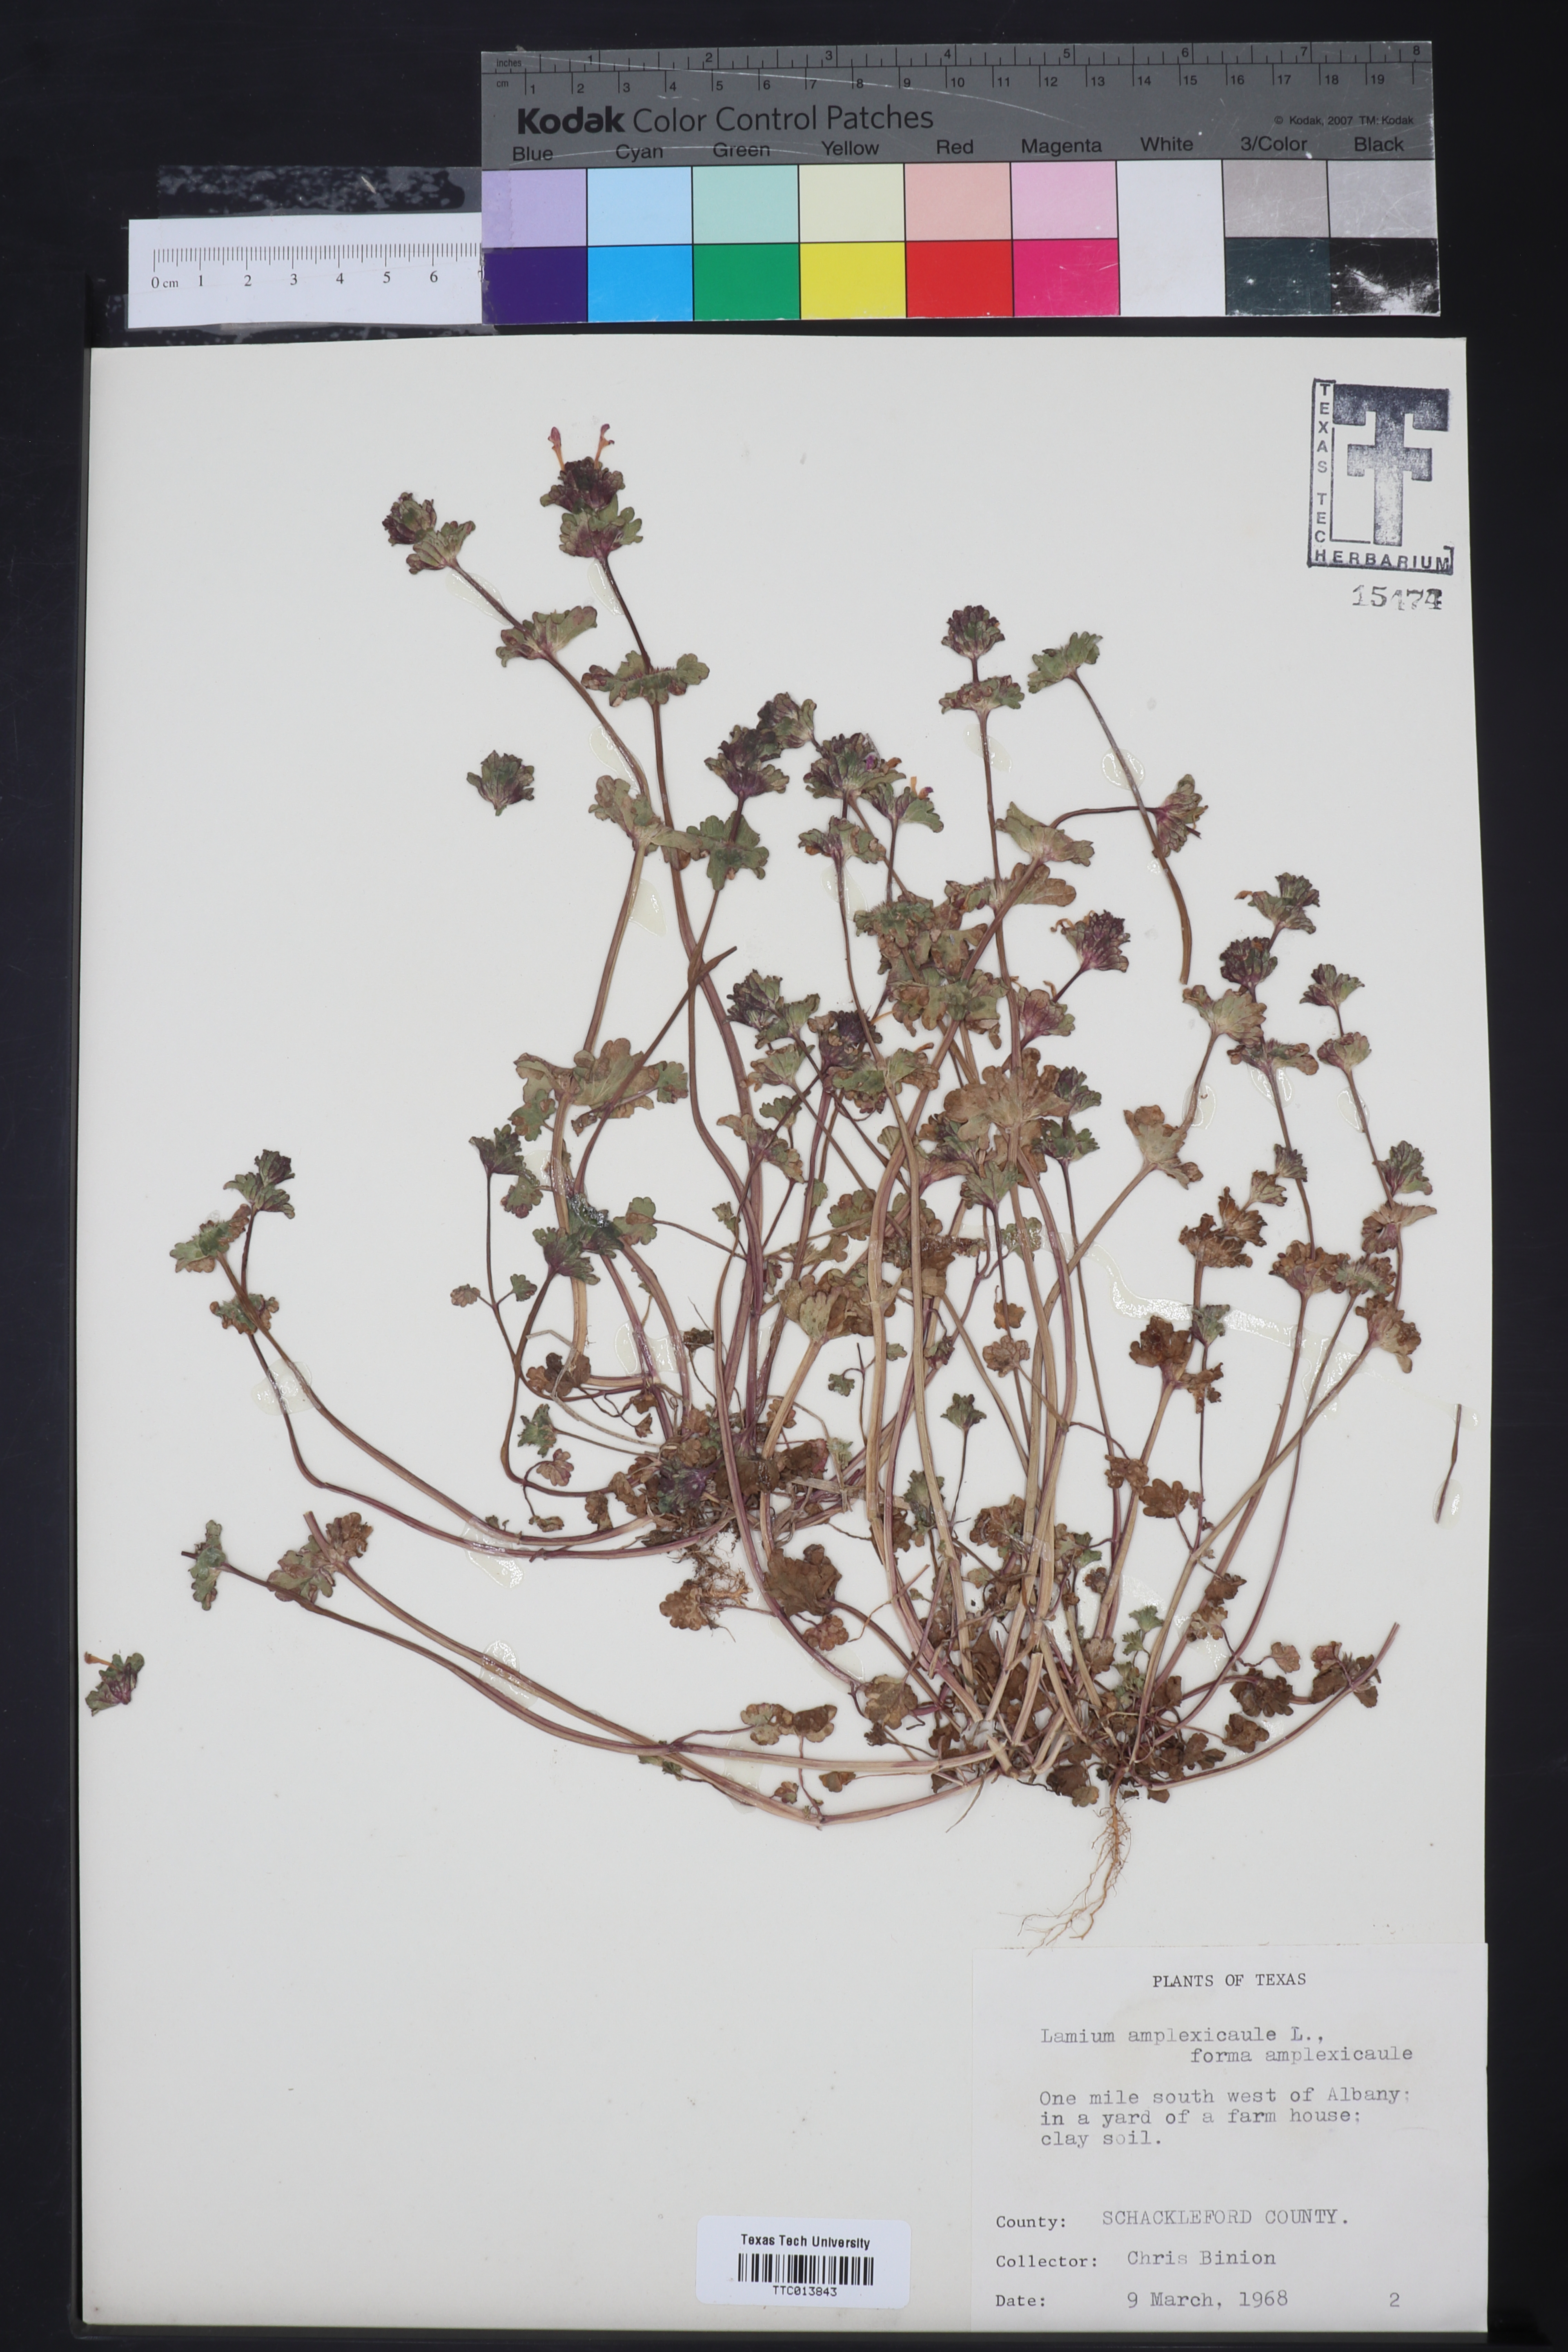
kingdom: Plantae
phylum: Tracheophyta
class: Magnoliopsida
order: Lamiales
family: Lamiaceae
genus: Lamium
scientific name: Lamium amplexicaule
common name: Henbit dead-nettle
